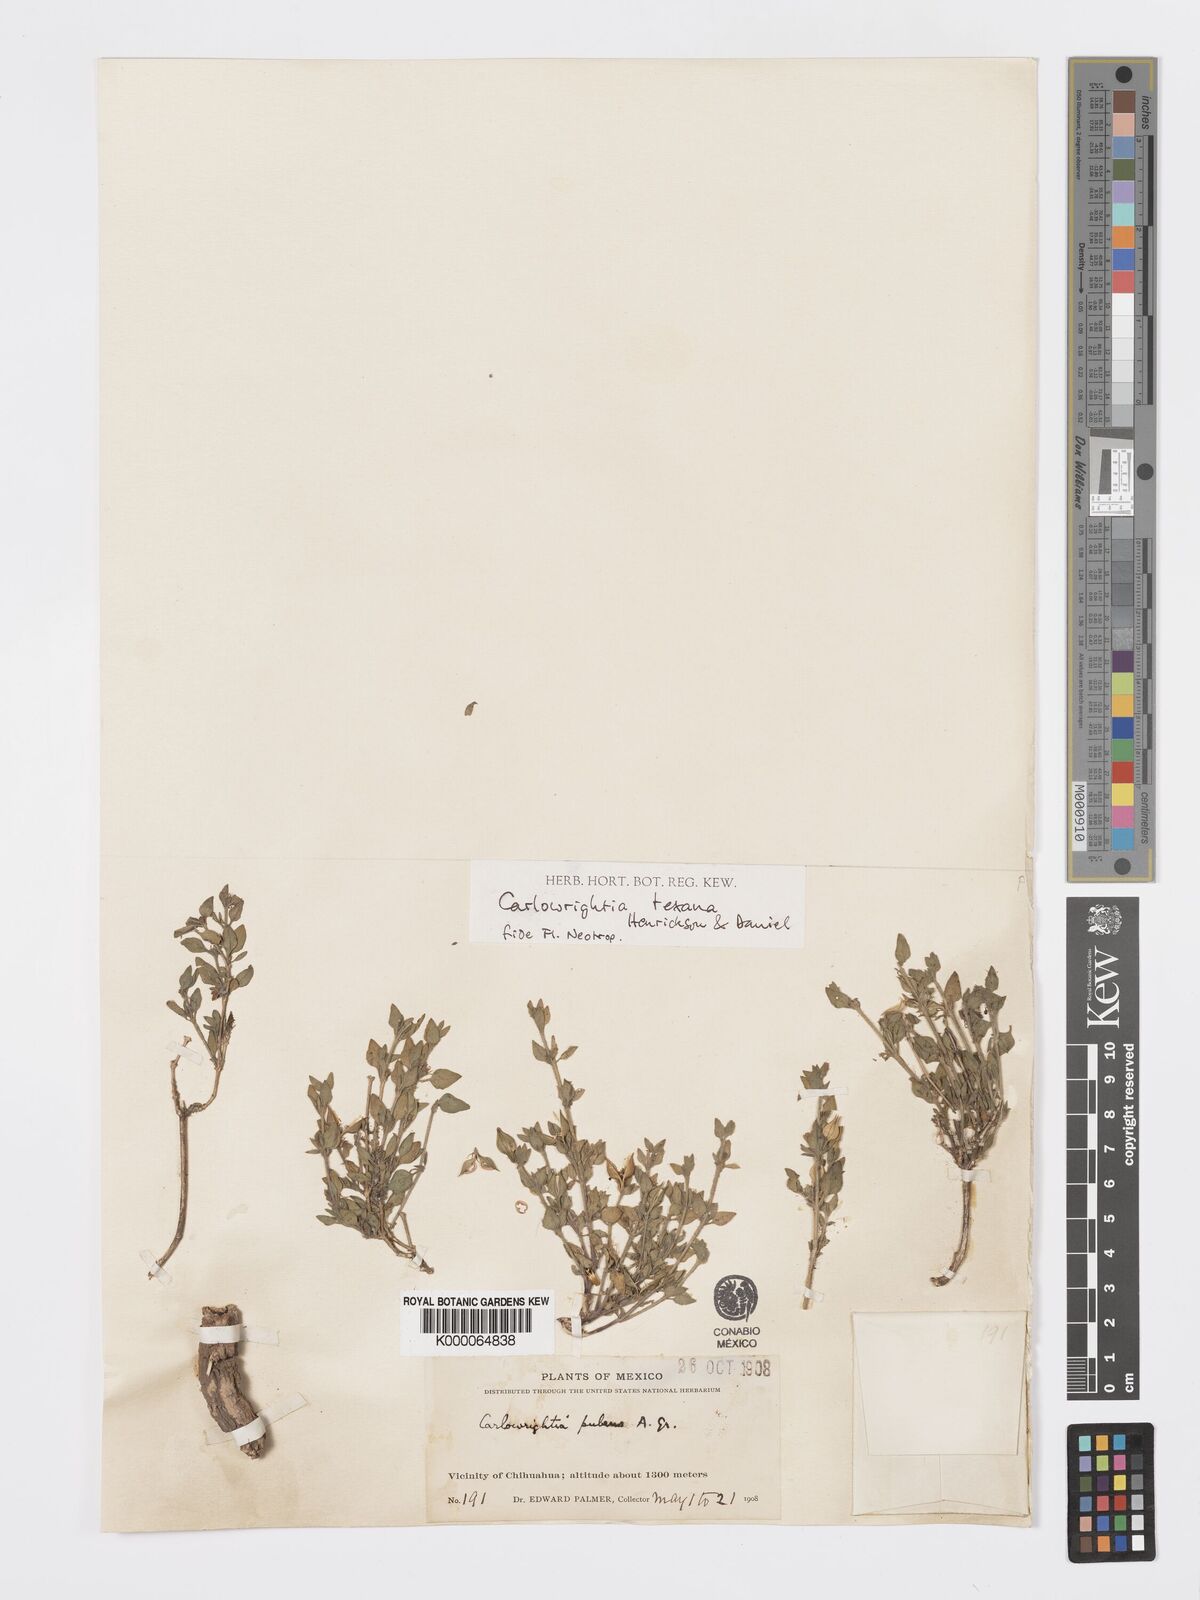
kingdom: Plantae
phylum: Tracheophyta
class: Magnoliopsida
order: Lamiales
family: Acanthaceae
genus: Carlowrightia
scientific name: Carlowrightia texana
